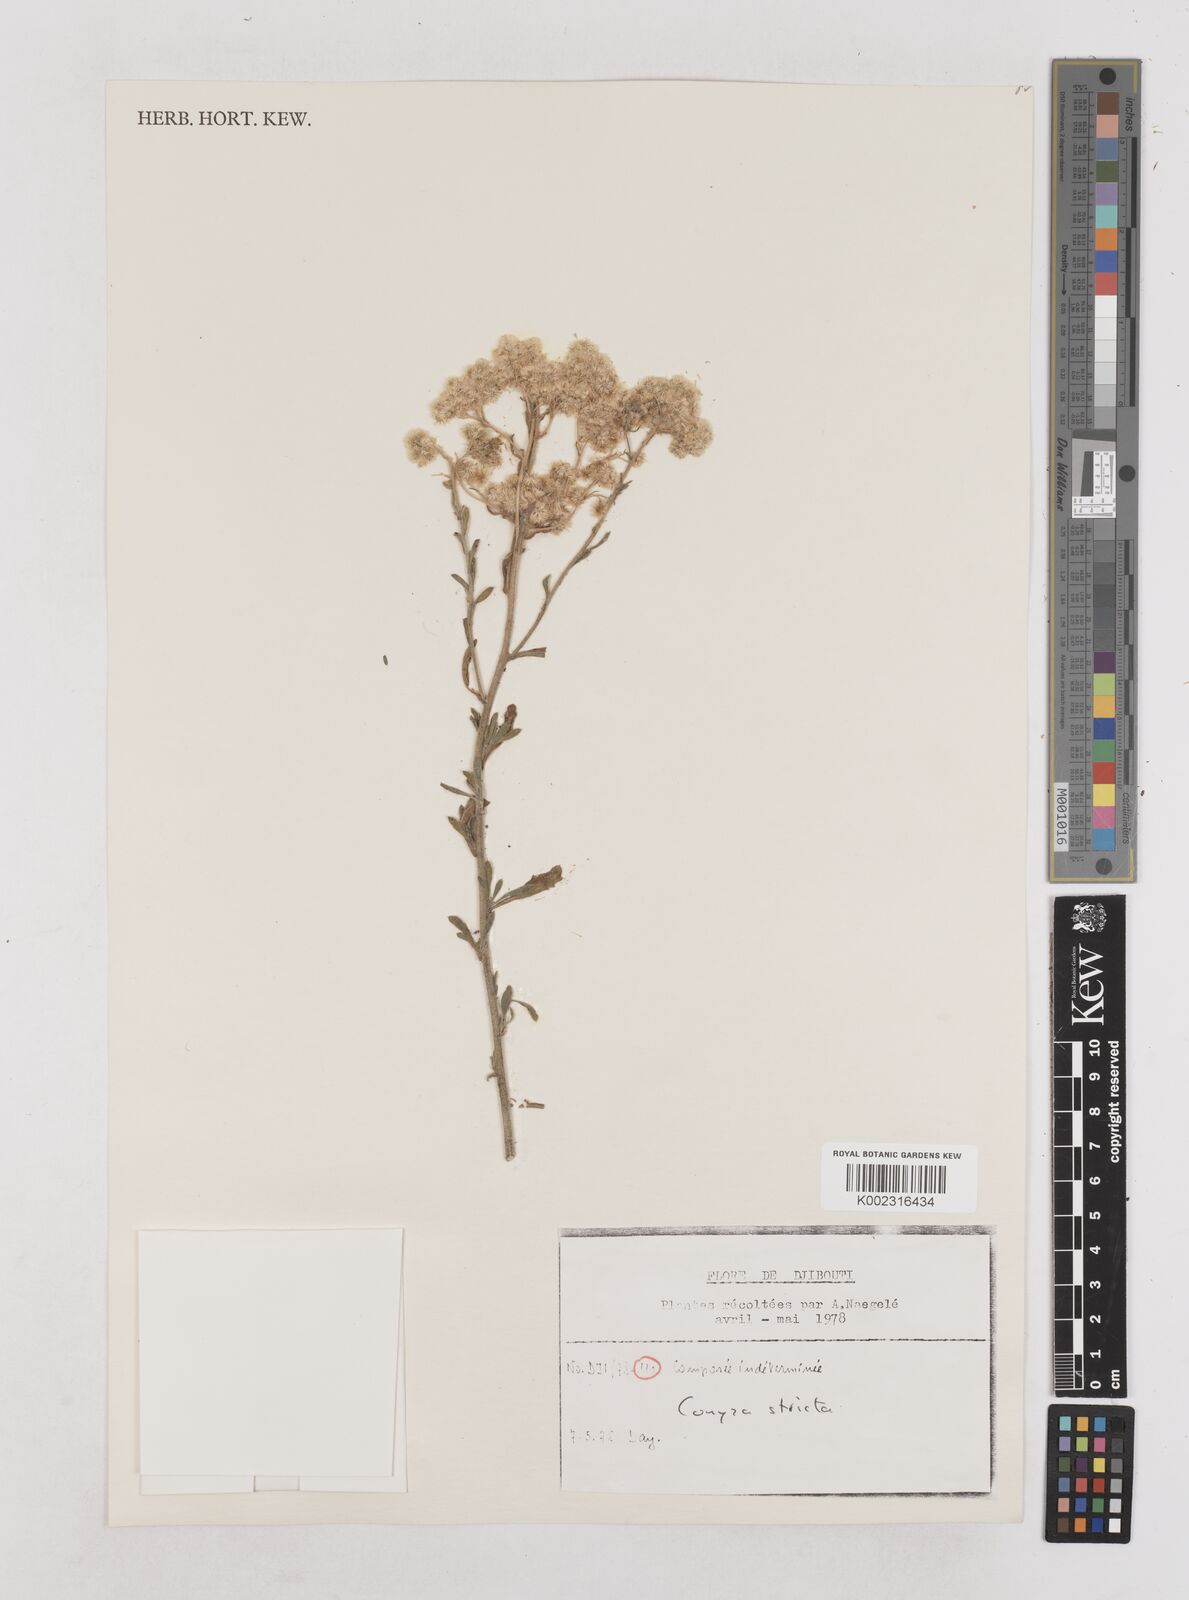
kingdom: Plantae
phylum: Tracheophyta
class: Magnoliopsida
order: Asterales
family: Asteraceae
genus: Nidorella
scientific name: Nidorella triloba
